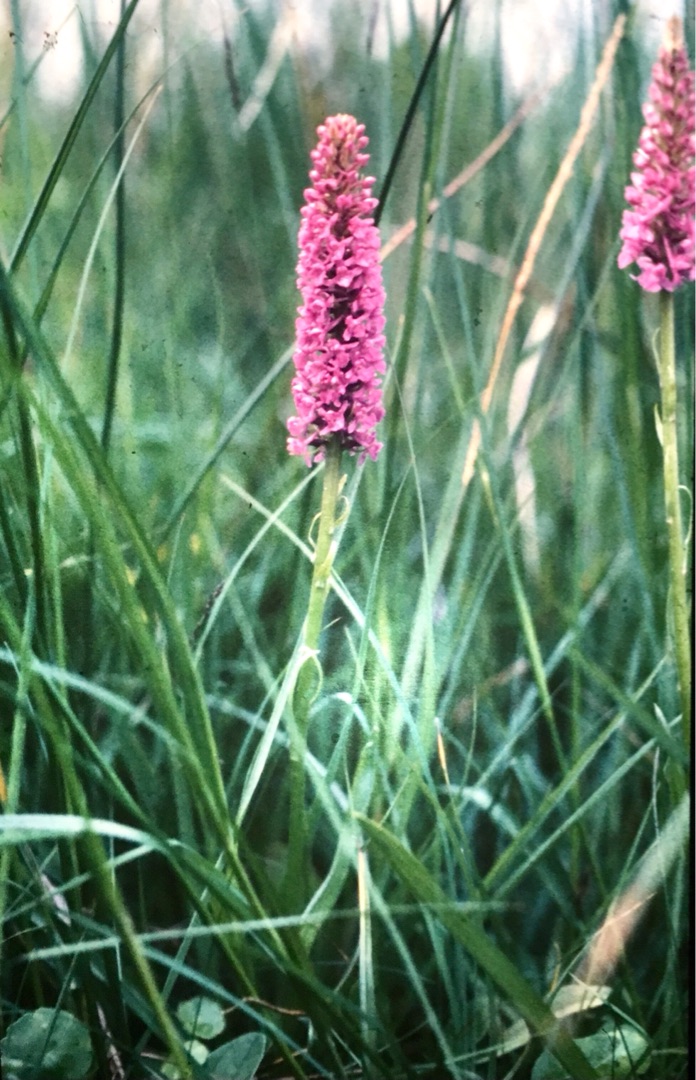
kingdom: Plantae
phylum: Tracheophyta
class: Liliopsida
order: Asparagales
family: Orchidaceae
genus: Gymnadenia
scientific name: Gymnadenia densiflora
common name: Tætblomstret trådspore
